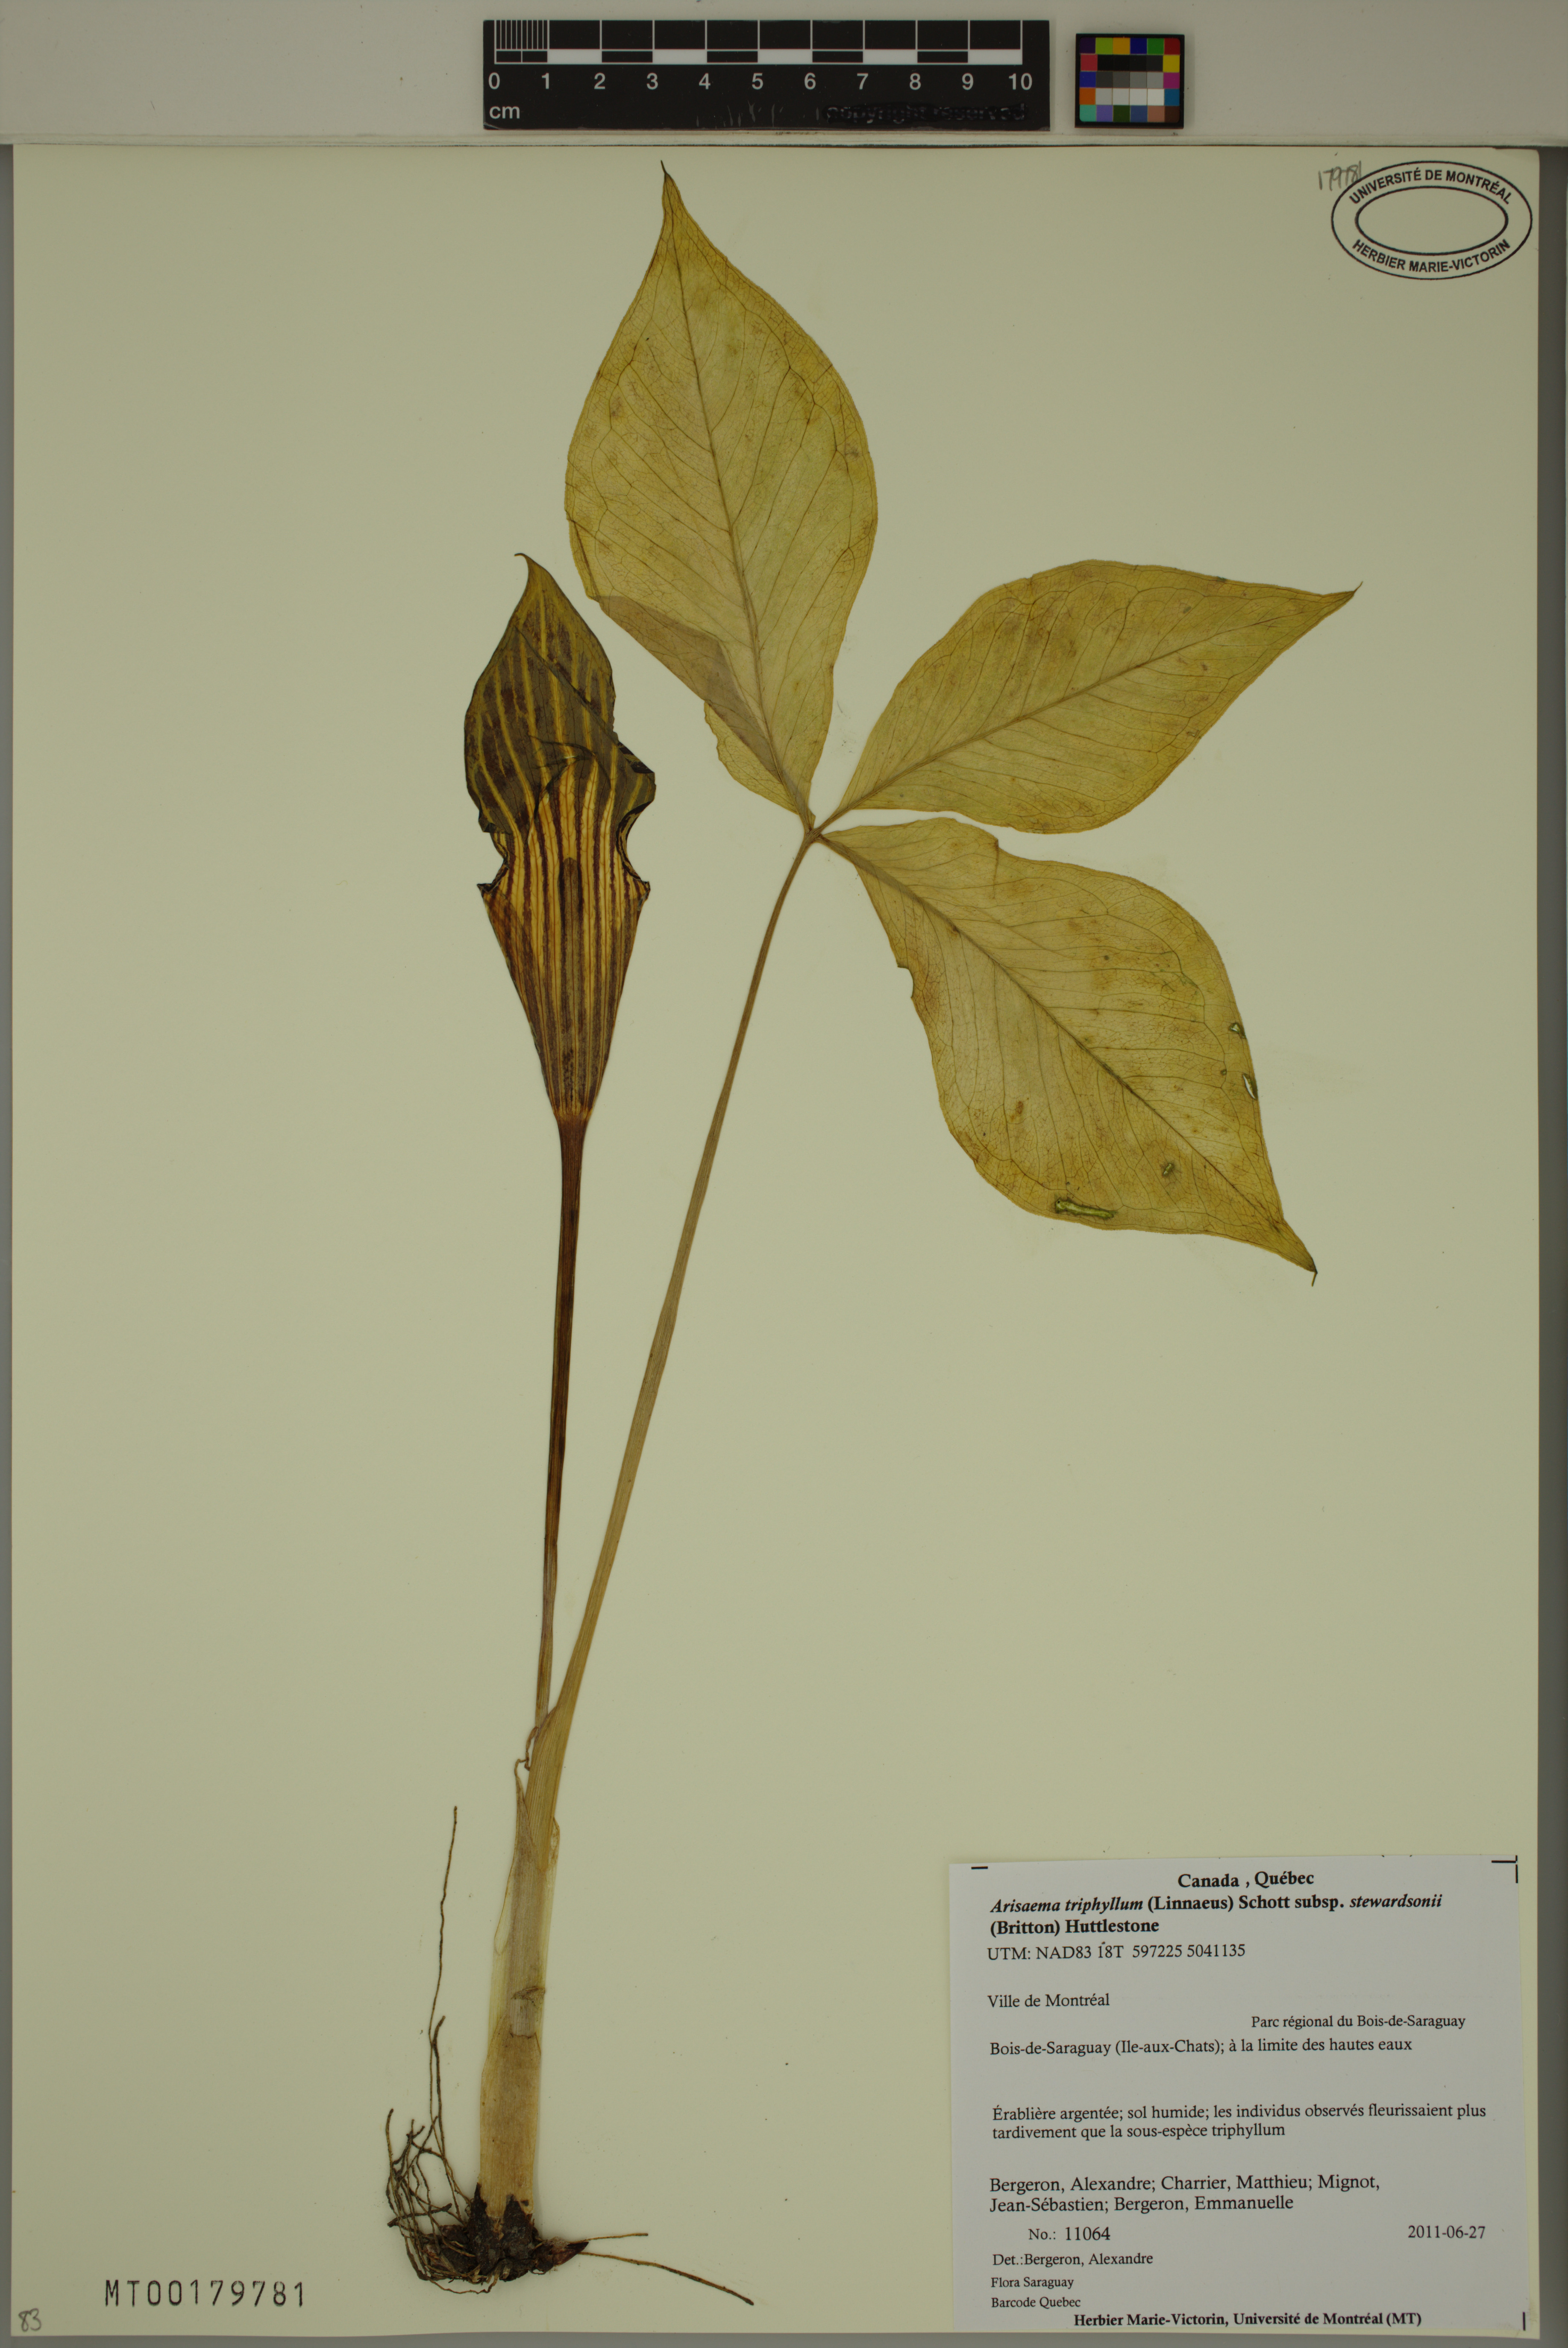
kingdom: Plantae
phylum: Tracheophyta
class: Liliopsida
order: Alismatales
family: Araceae
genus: Arisaema
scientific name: Arisaema stewardsonii
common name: Swamp jack-in-the-pulpit
